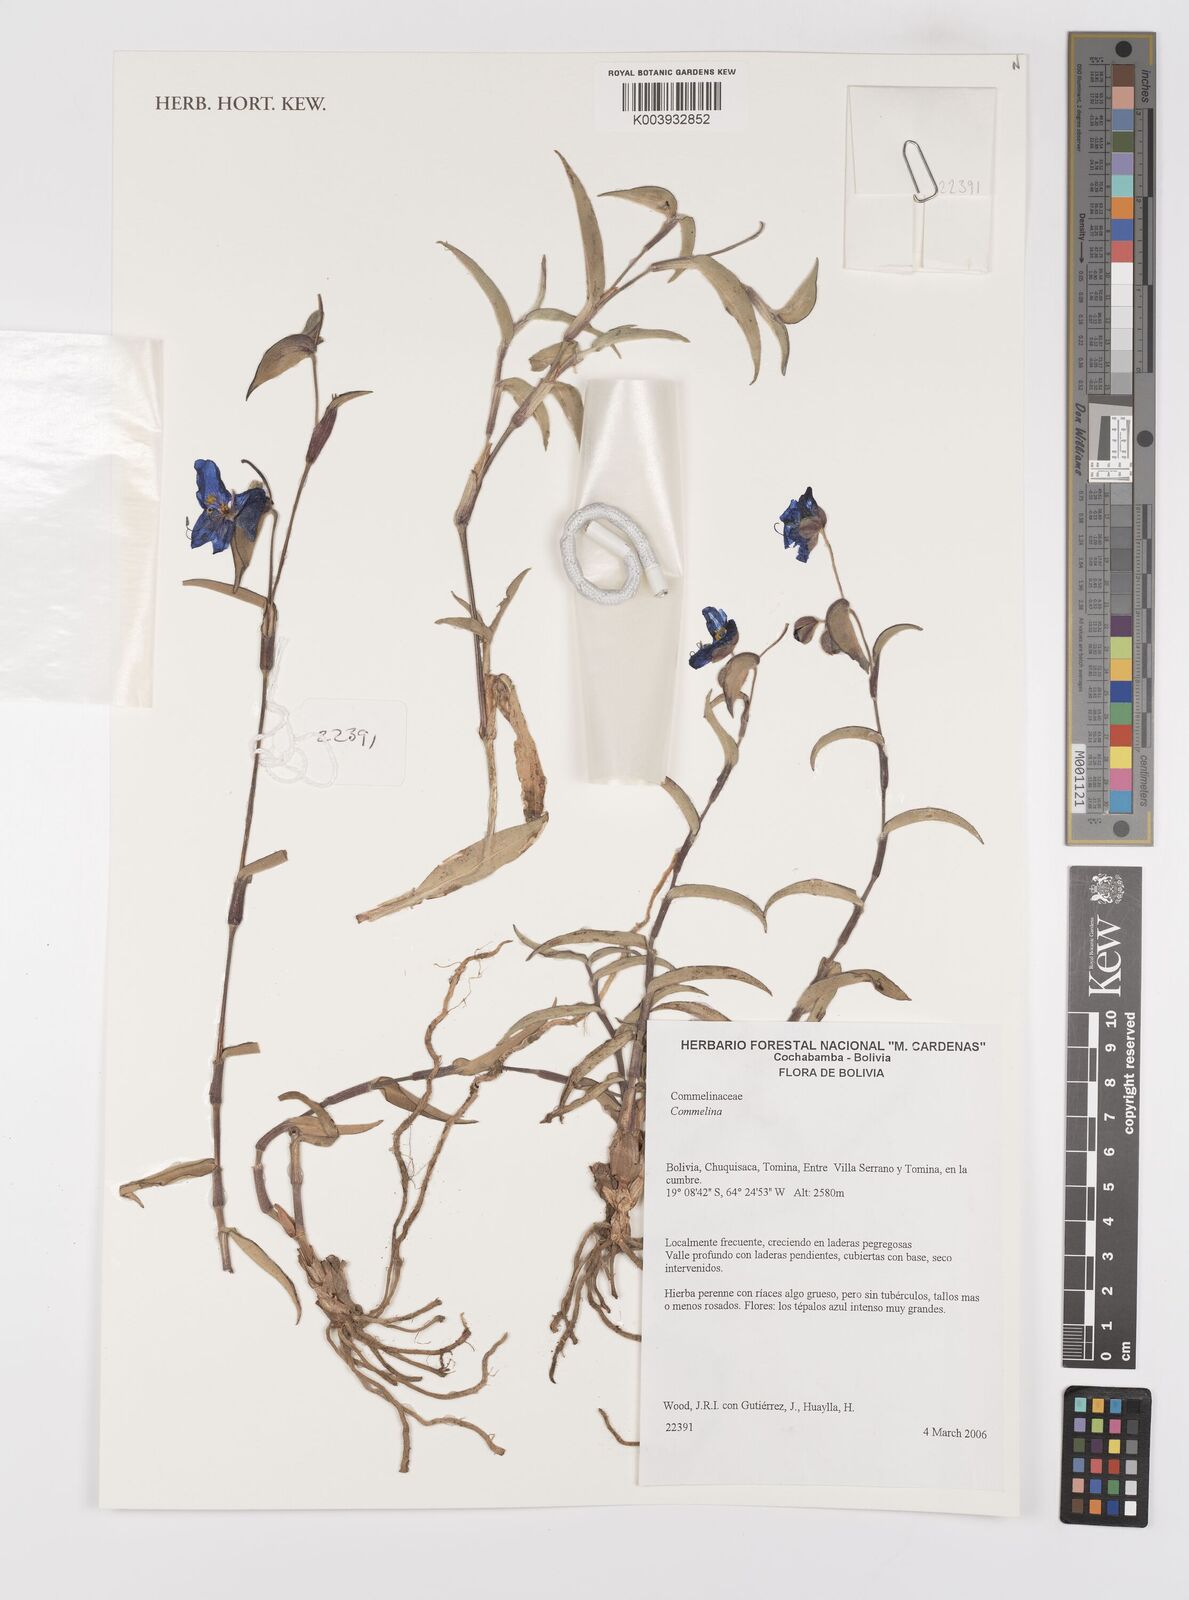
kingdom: Plantae
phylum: Tracheophyta
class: Liliopsida
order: Commelinales
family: Commelinaceae
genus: Commelina
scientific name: Commelina
